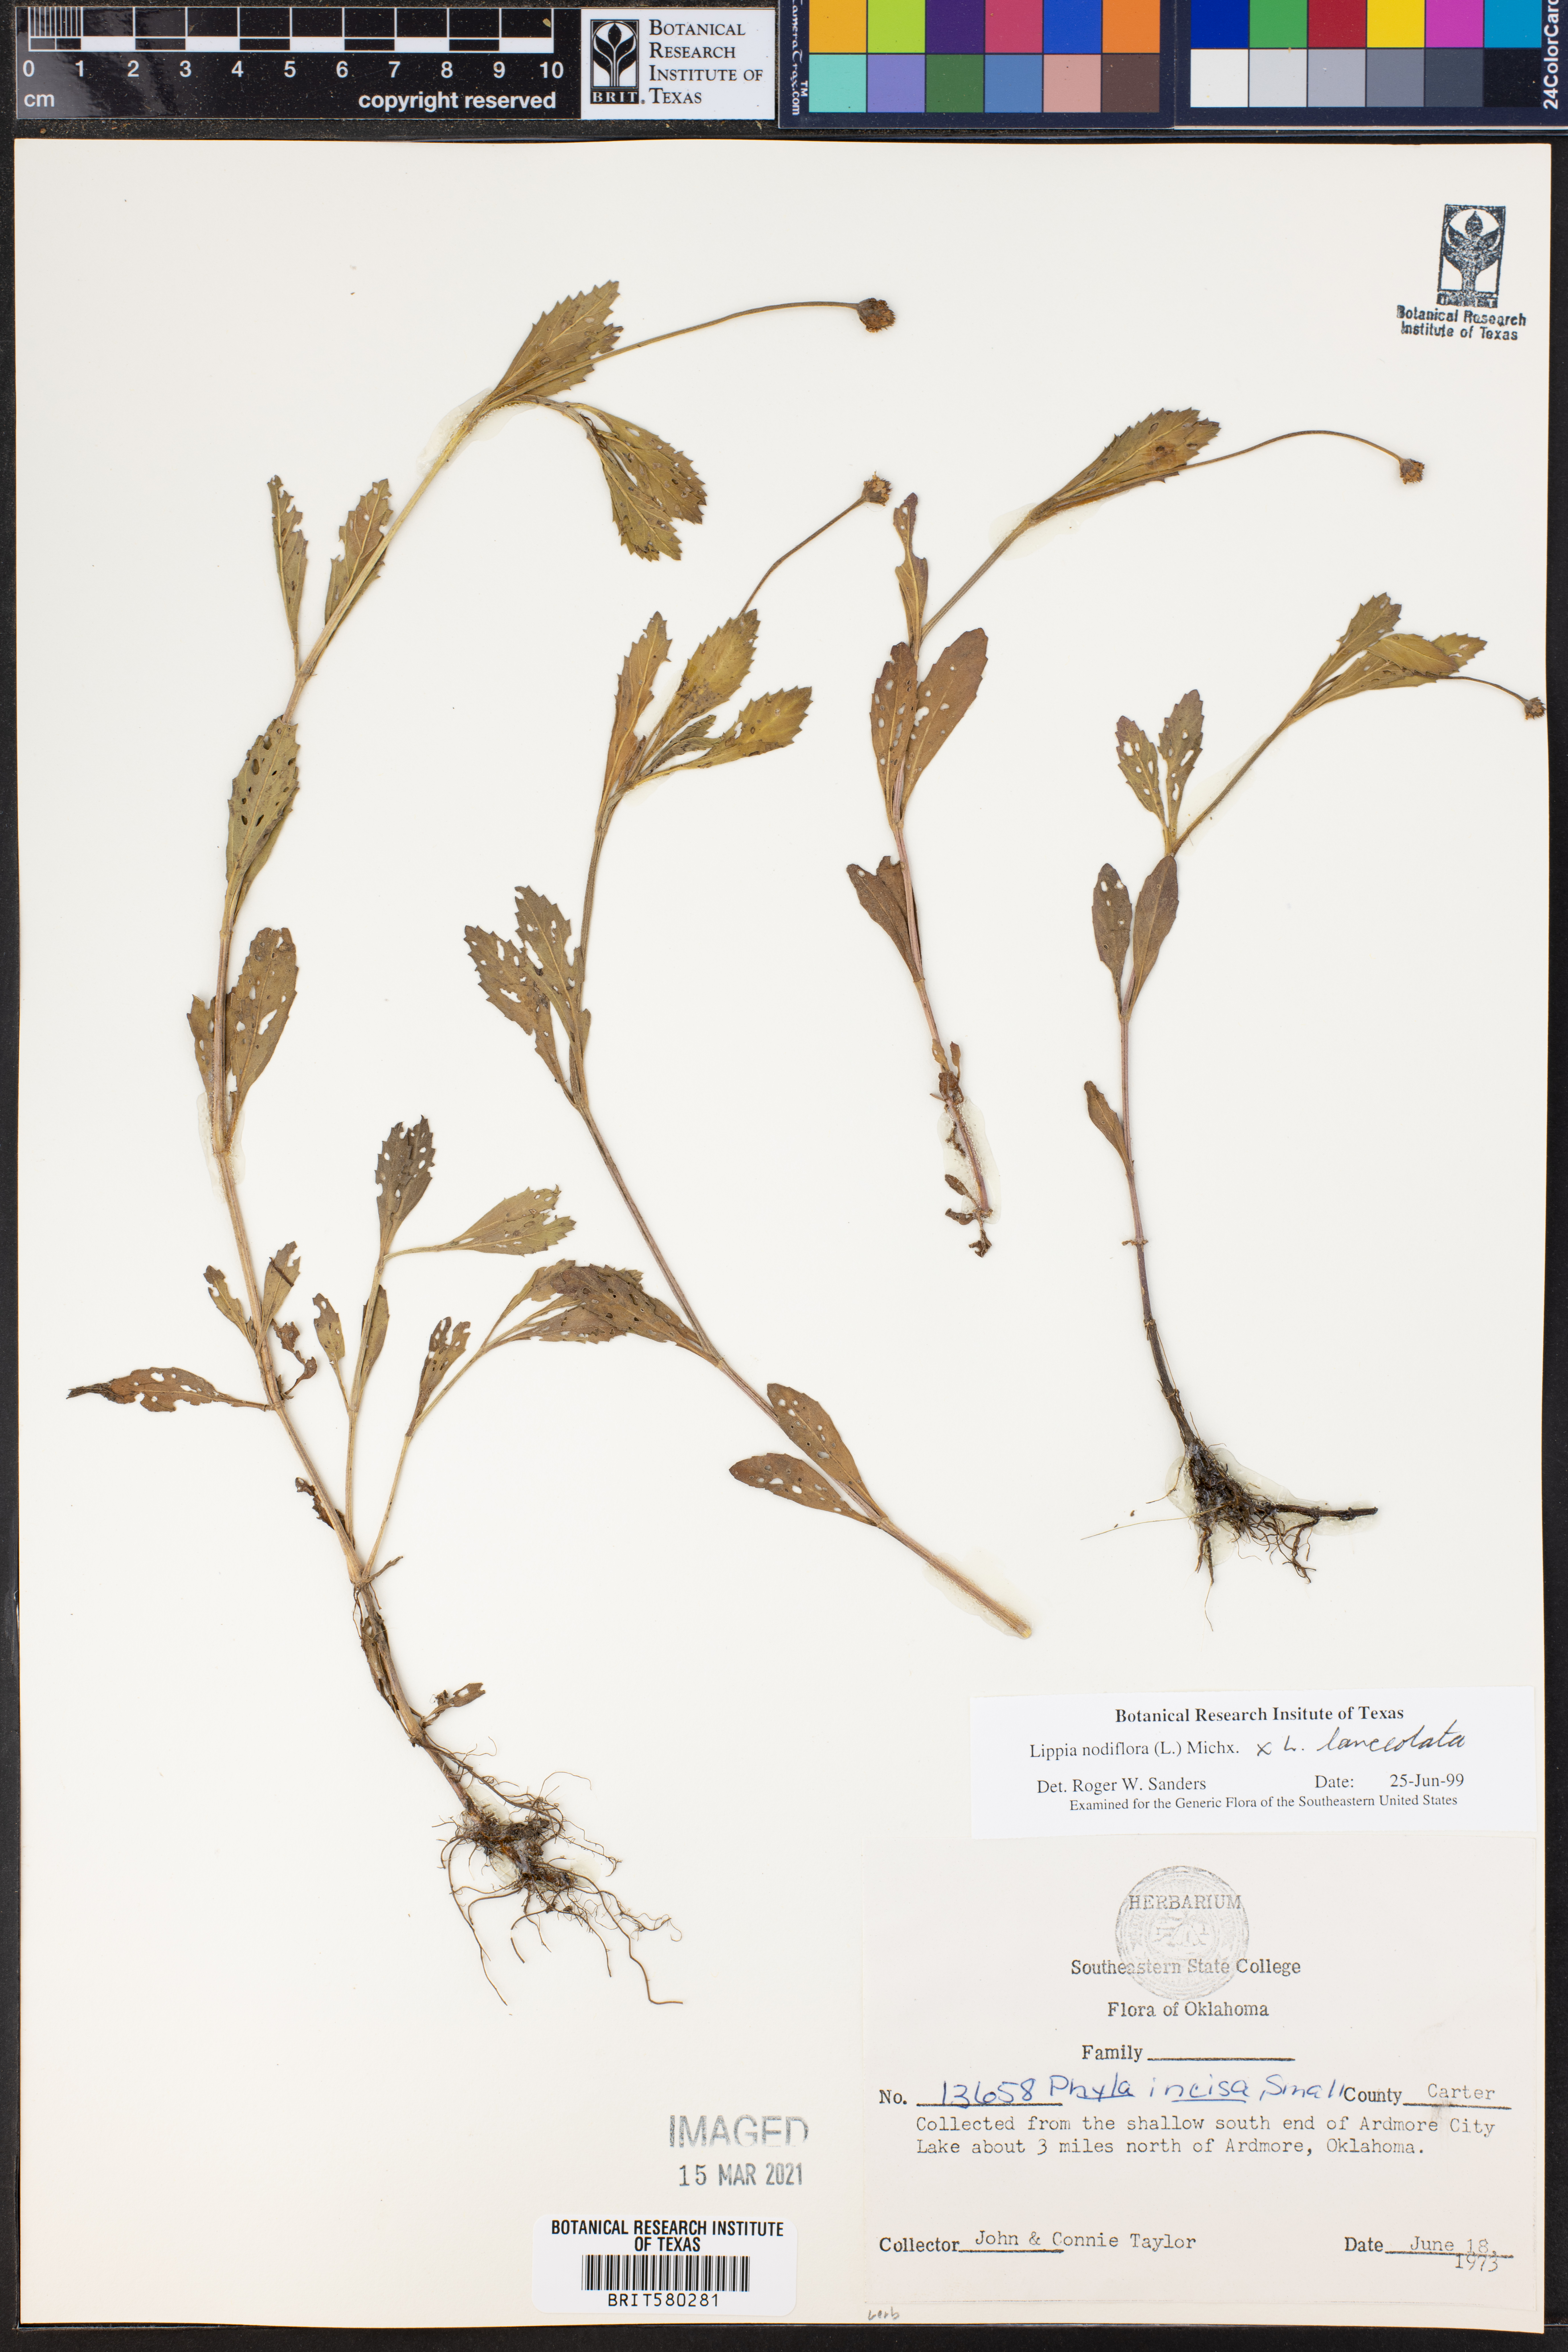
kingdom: Plantae
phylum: Tracheophyta
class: Magnoliopsida
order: Lamiales
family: Verbenaceae
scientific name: Verbenaceae
